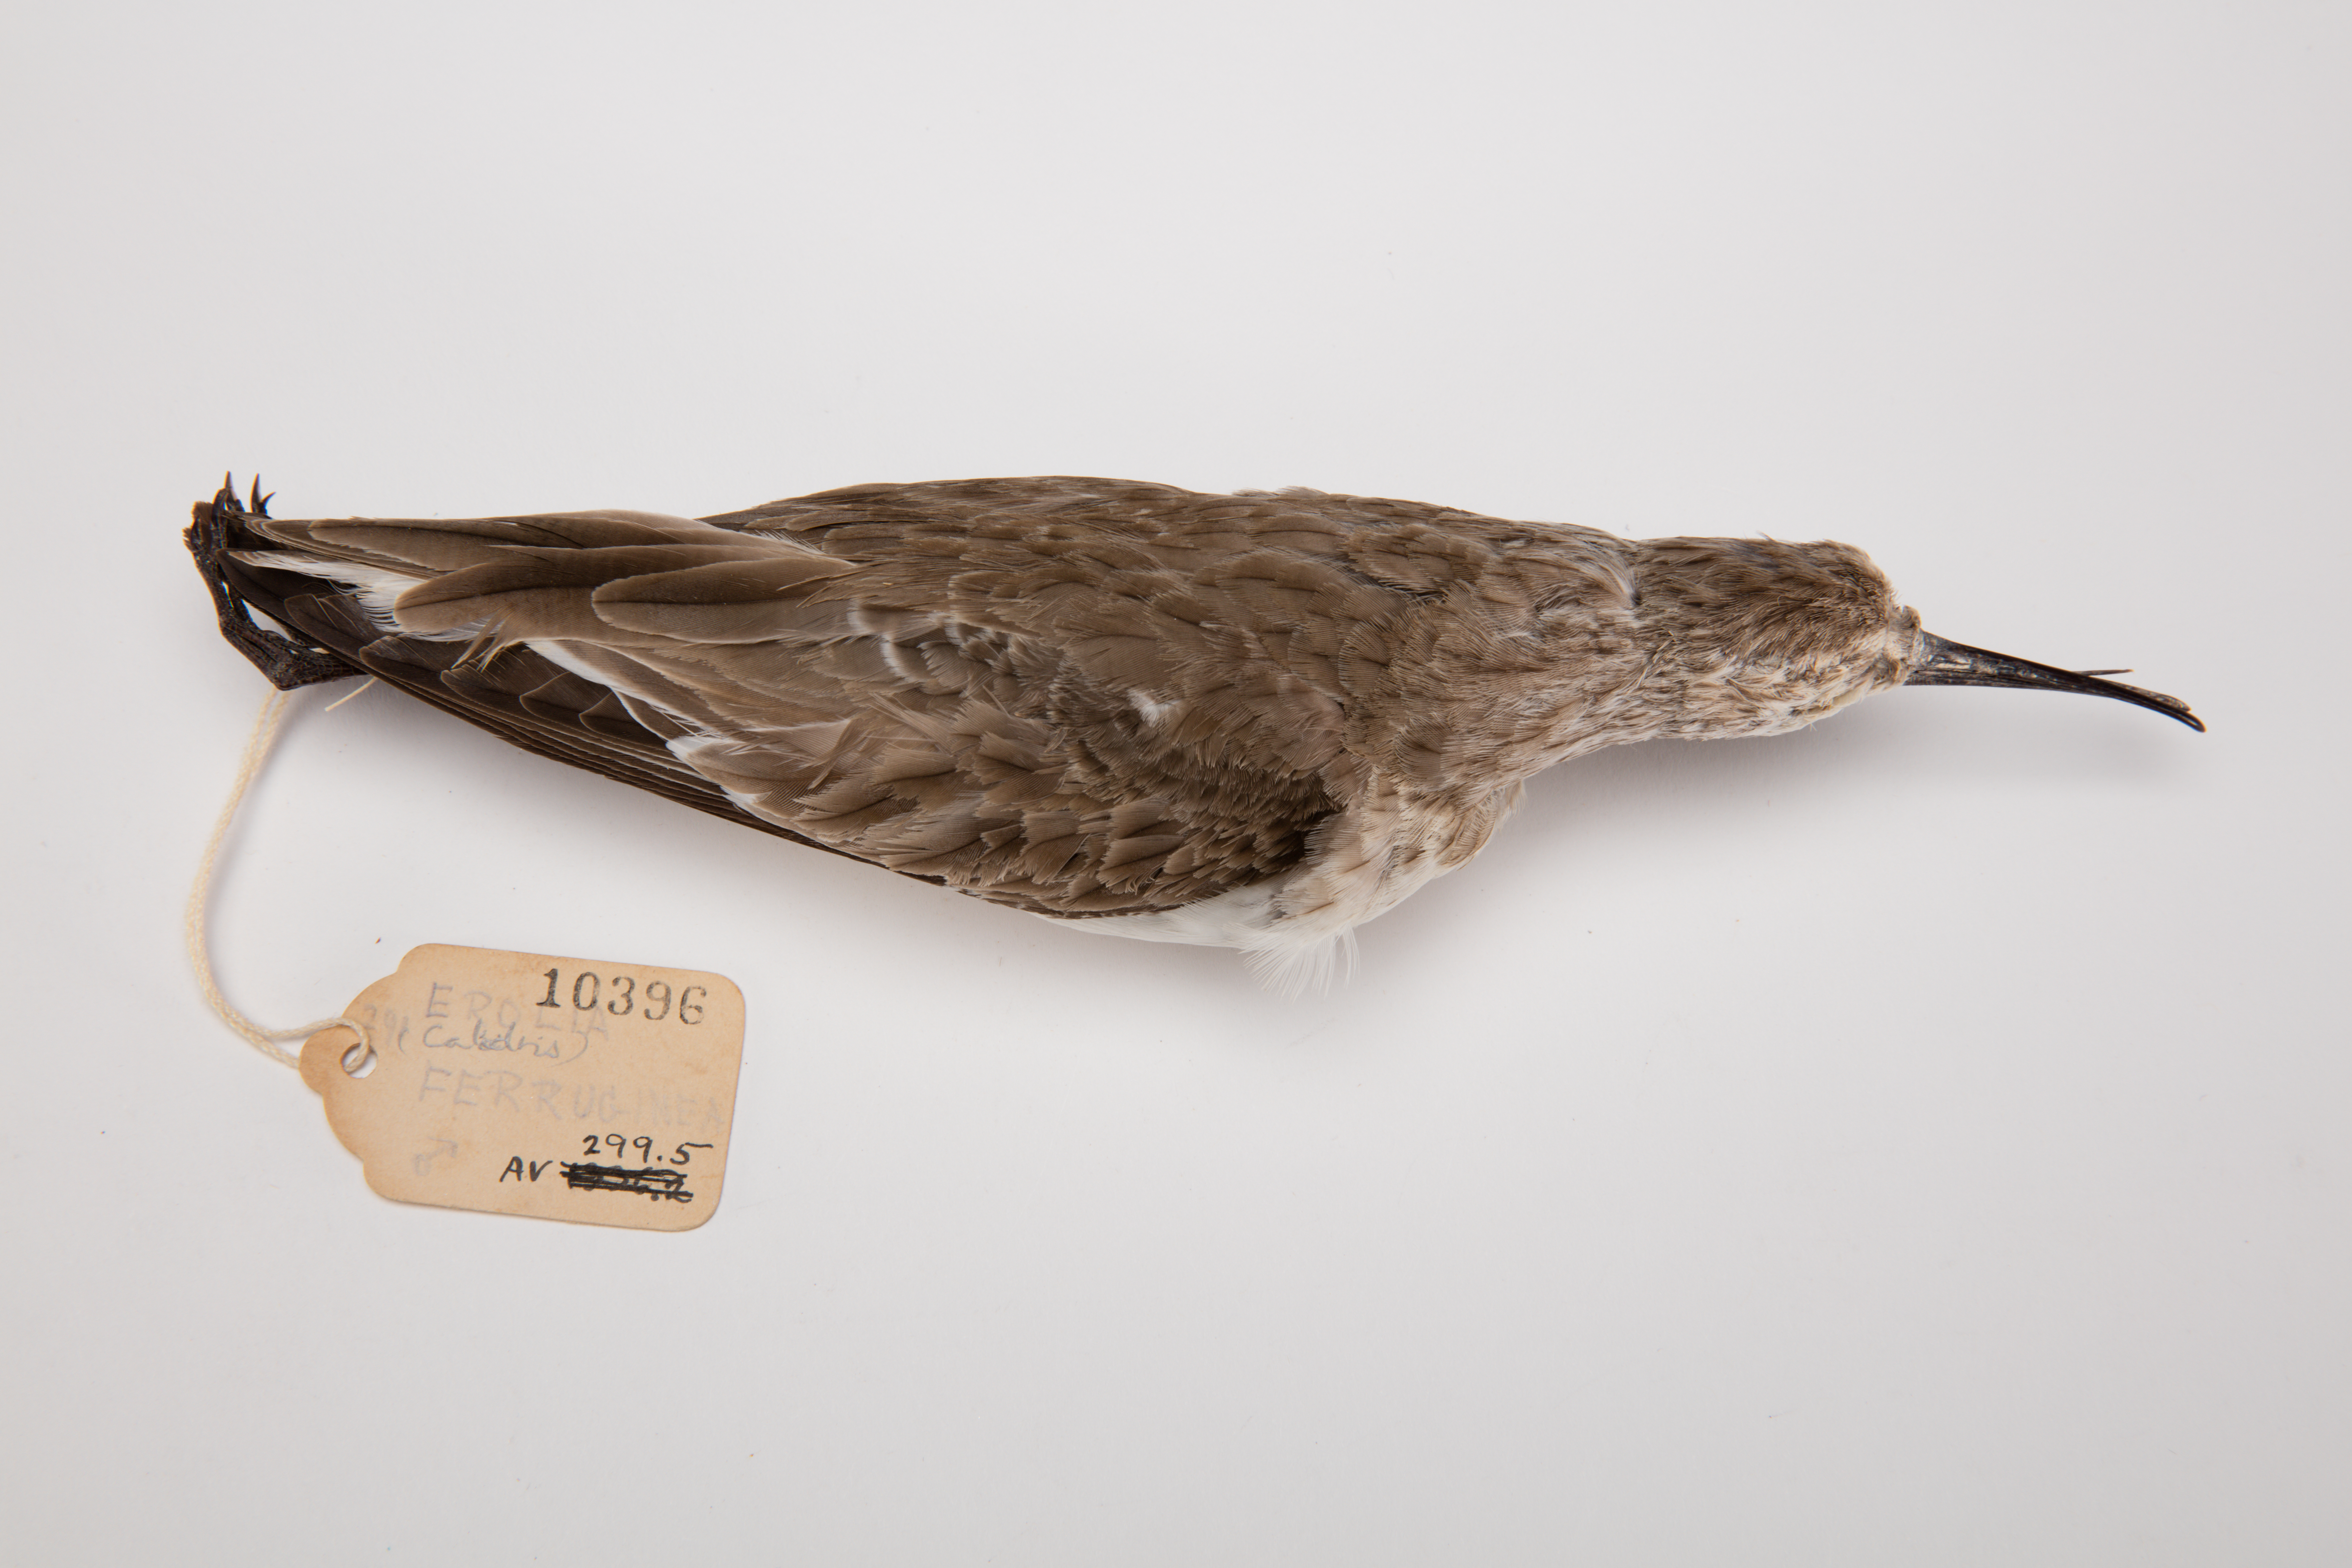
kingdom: Animalia
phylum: Chordata
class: Aves
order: Charadriiformes
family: Scolopacidae
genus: Calidris
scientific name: Calidris ferruginea
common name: Curlew sandpiper
